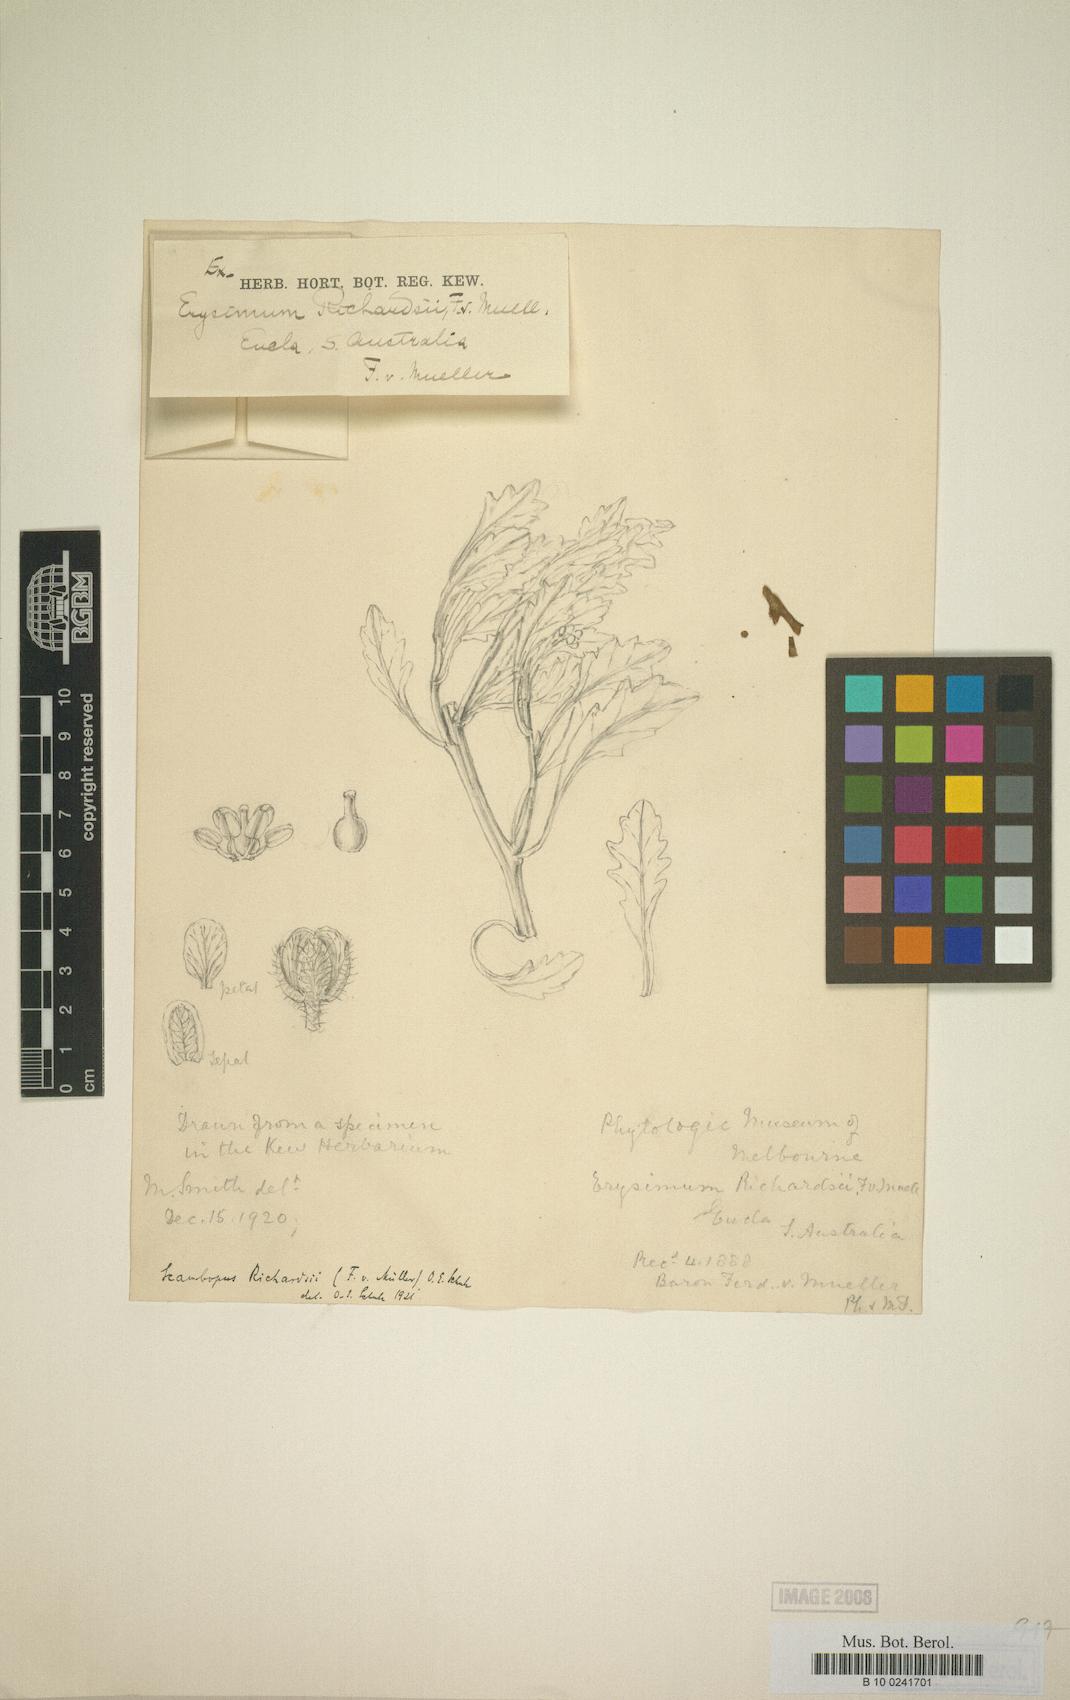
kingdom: Plantae
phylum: Tracheophyta
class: Magnoliopsida
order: Brassicales
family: Brassicaceae
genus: Phlegmatospermum
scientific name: Phlegmatospermum richardsii
